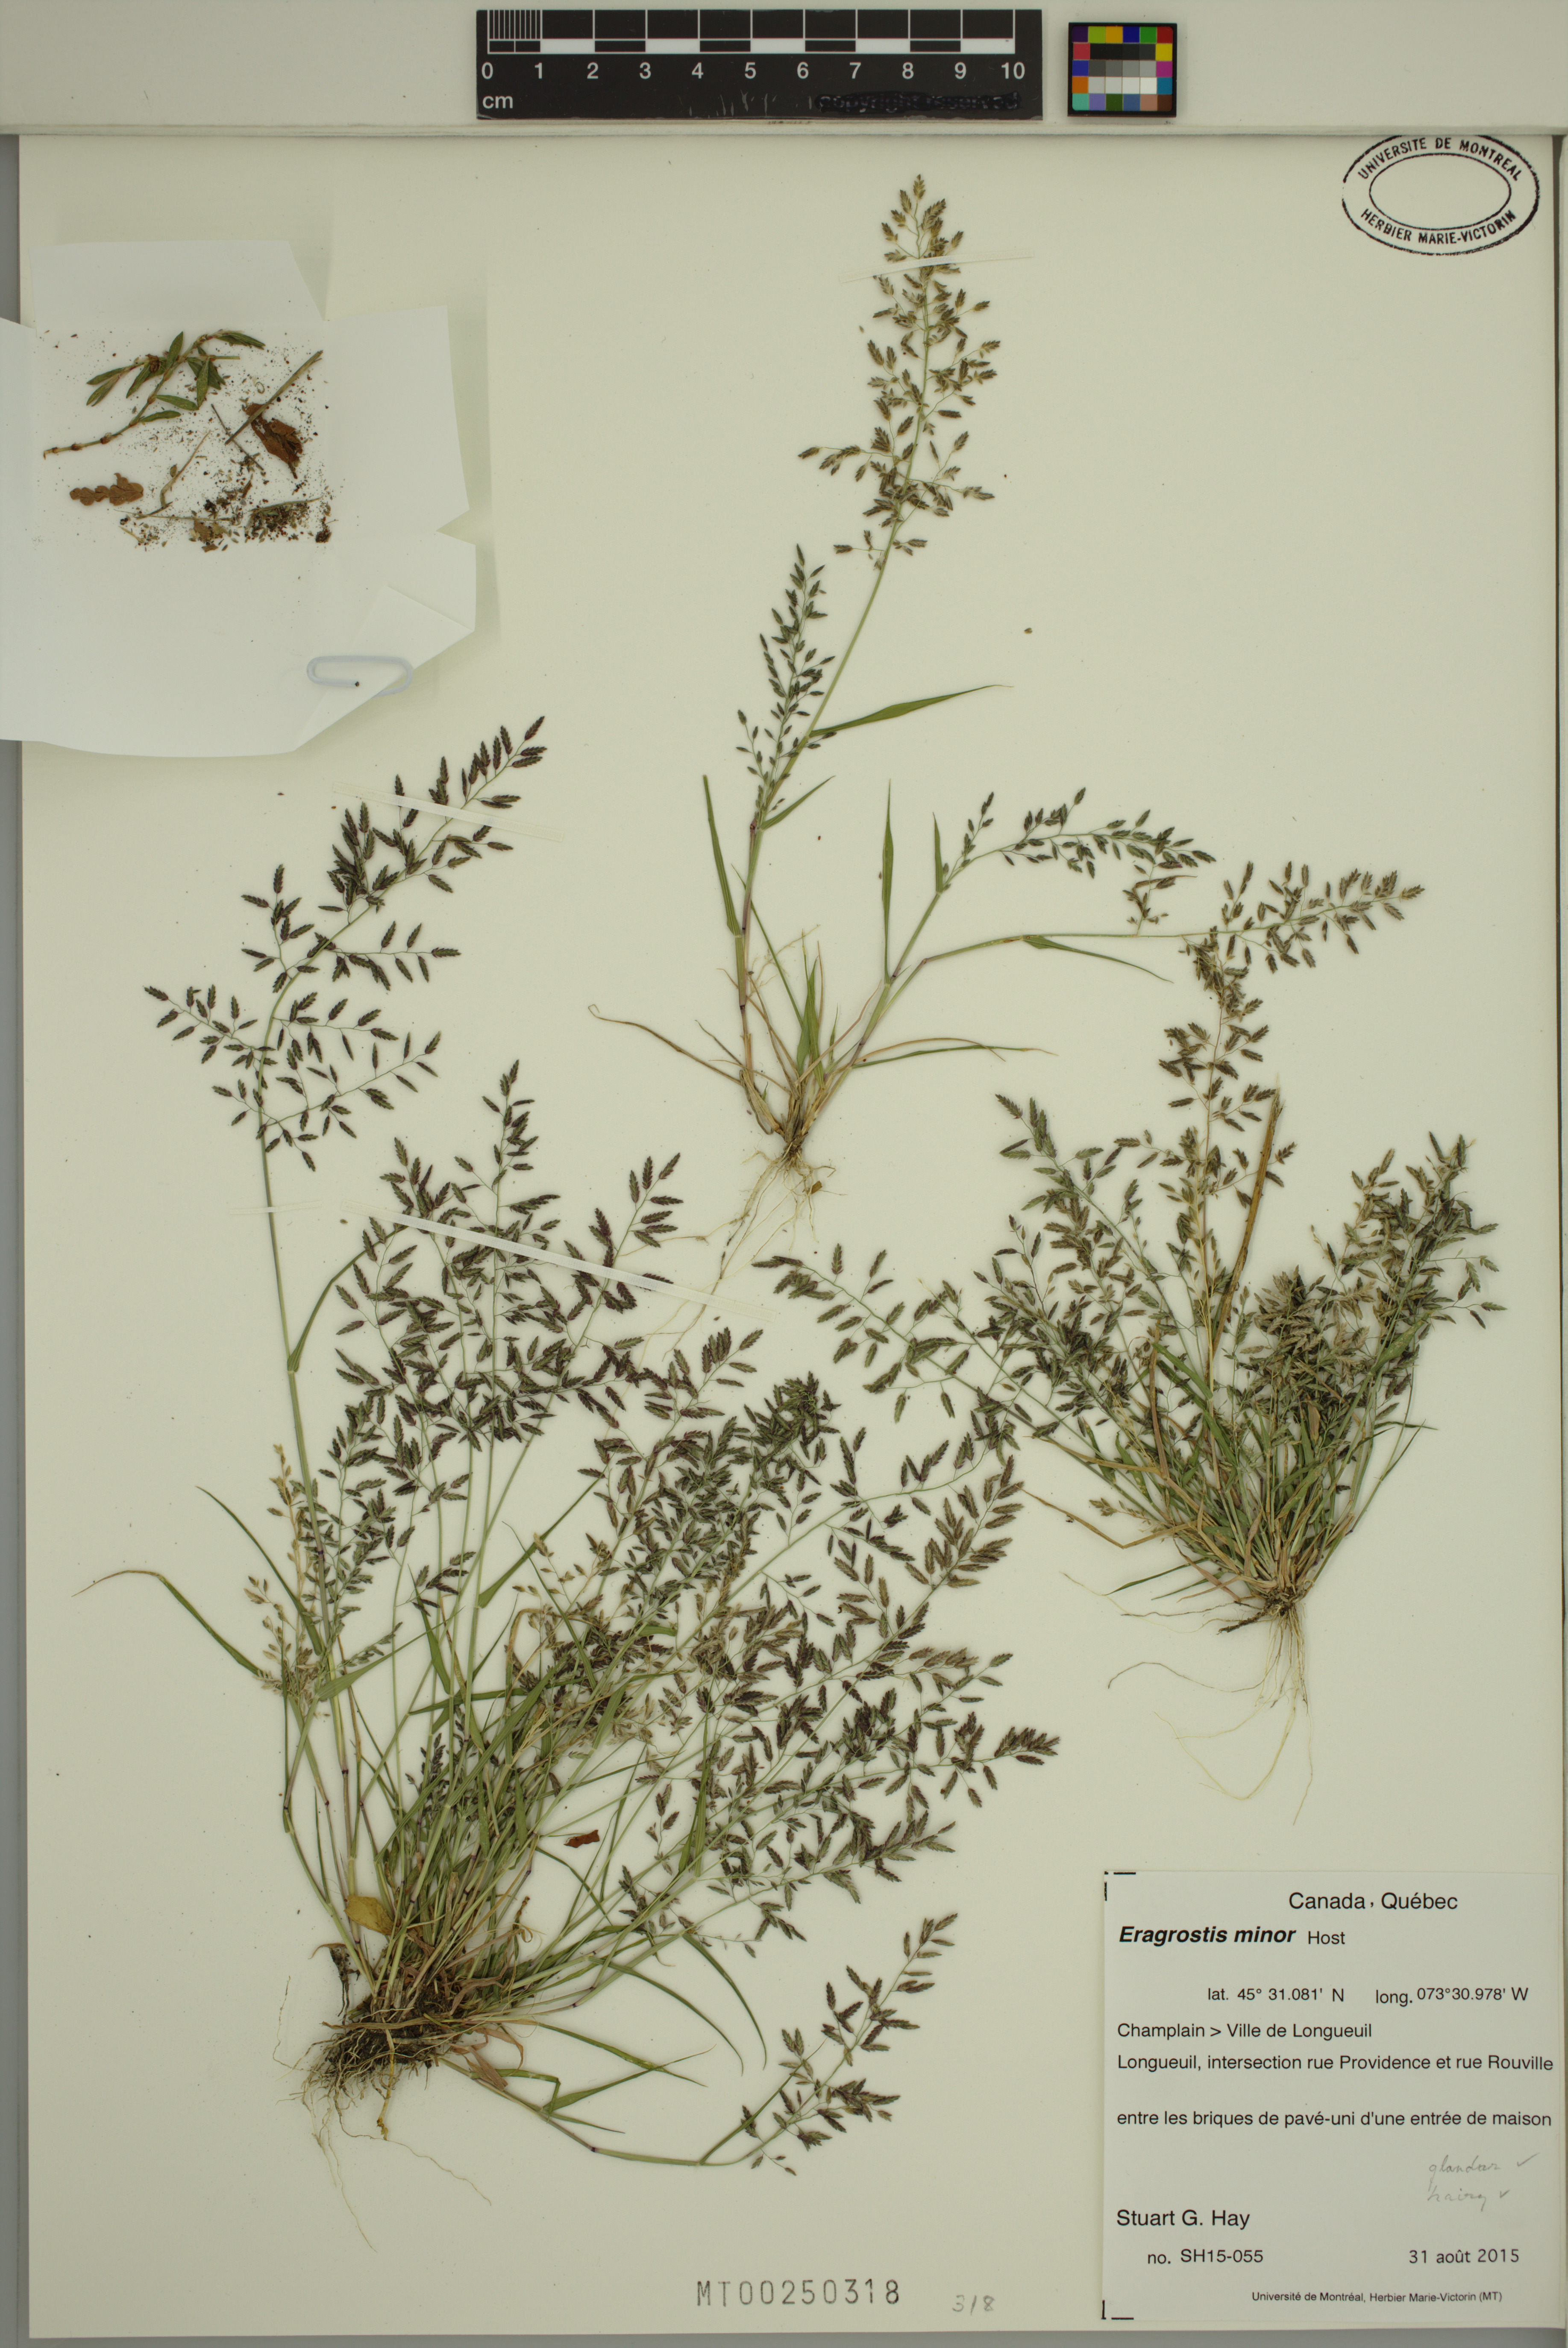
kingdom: Plantae
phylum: Tracheophyta
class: Liliopsida
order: Poales
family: Poaceae
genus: Eragrostis
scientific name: Eragrostis minor
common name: Small love-grass
